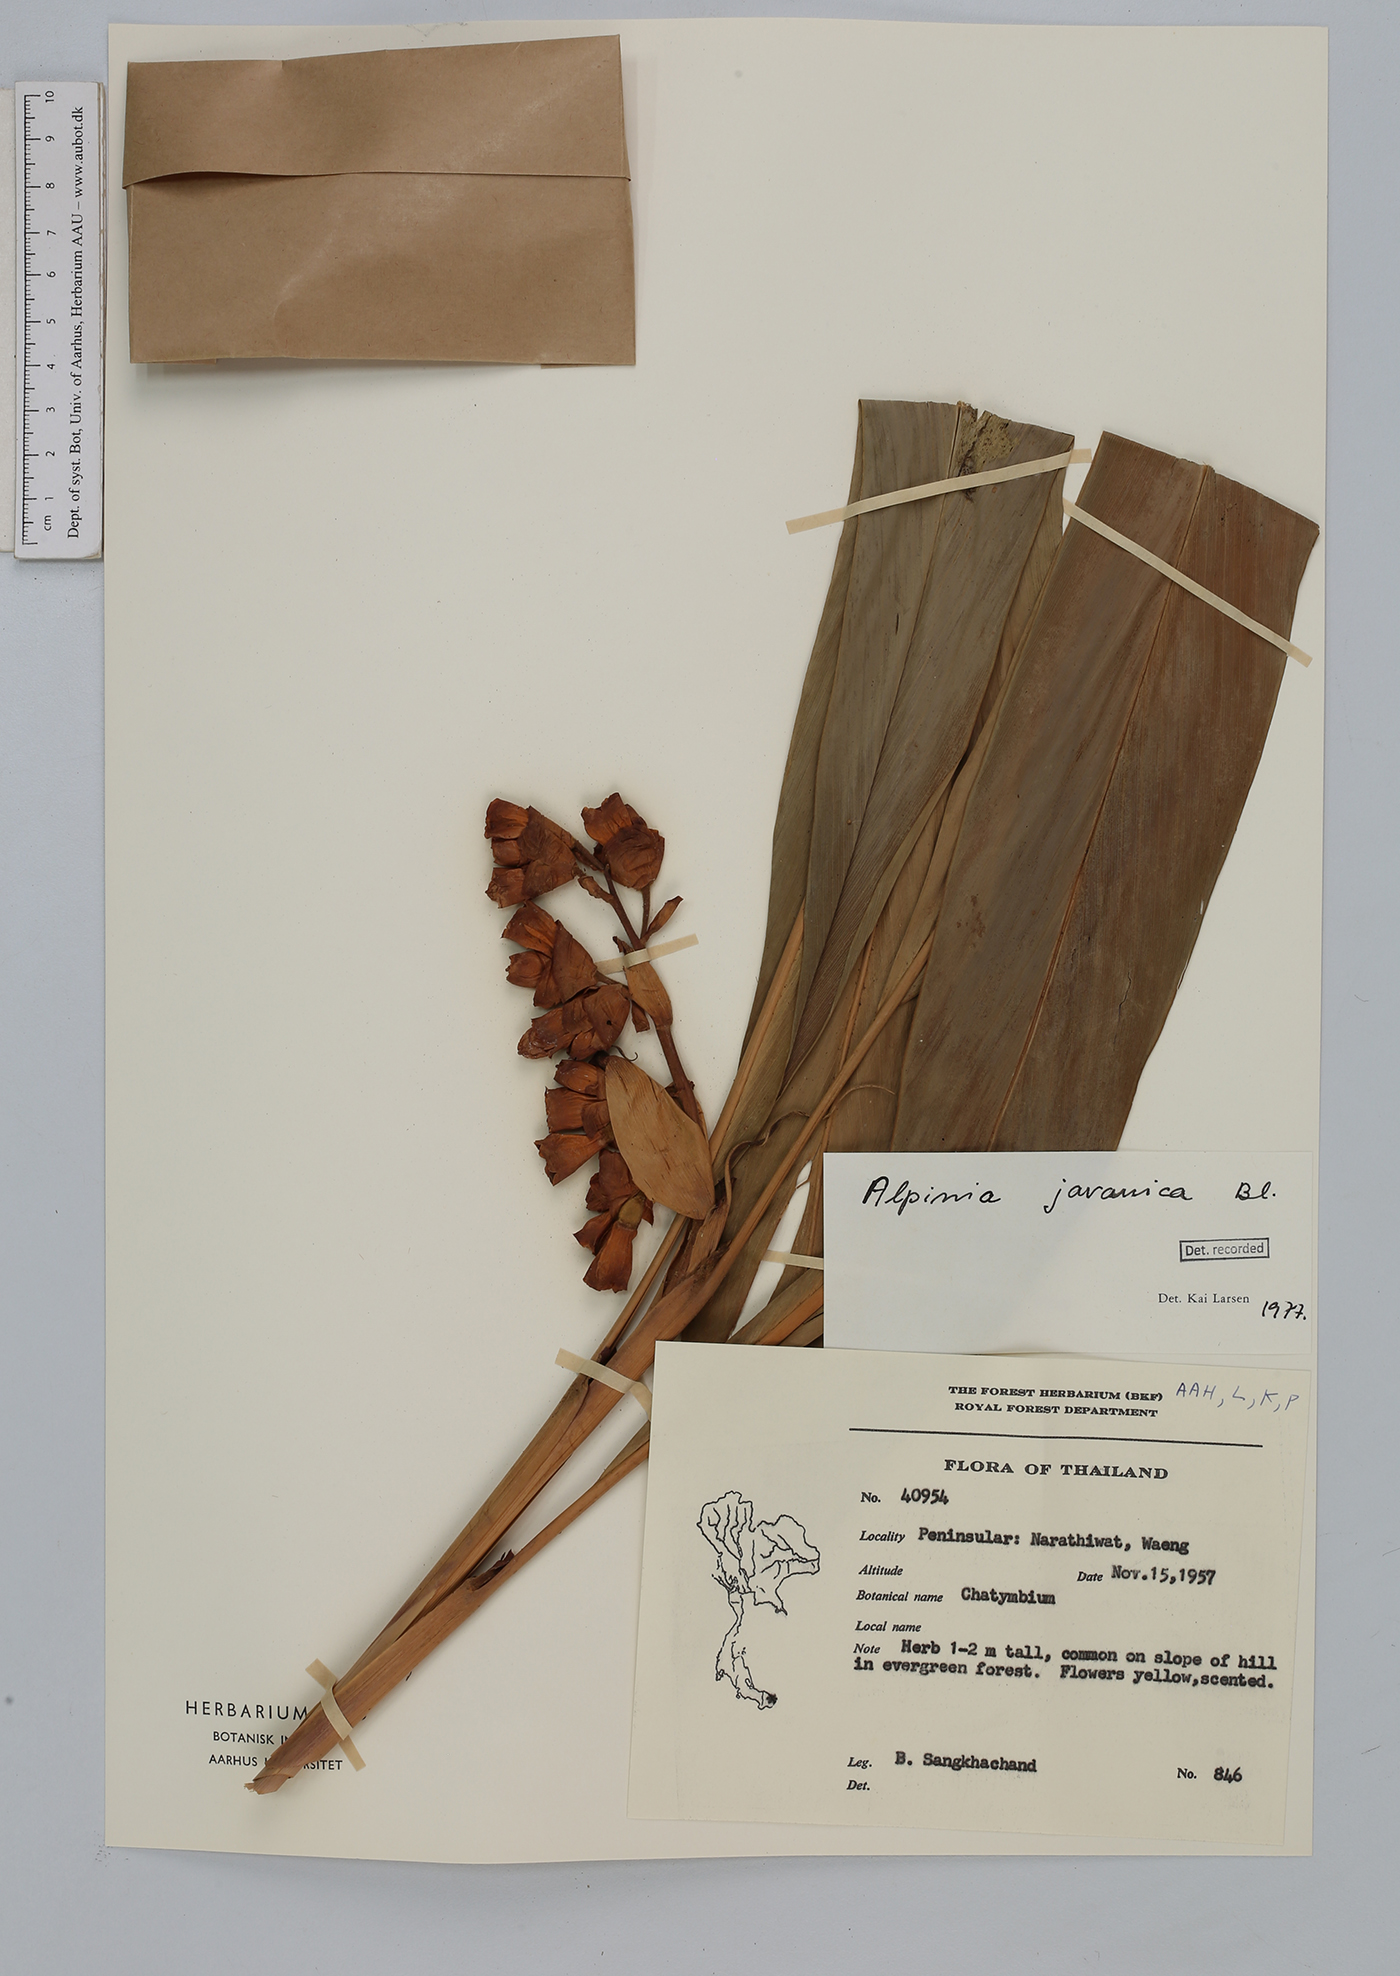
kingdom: Plantae
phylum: Tracheophyta
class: Liliopsida
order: Zingiberales
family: Zingiberaceae
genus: Alpinia
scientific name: Alpinia javanica
